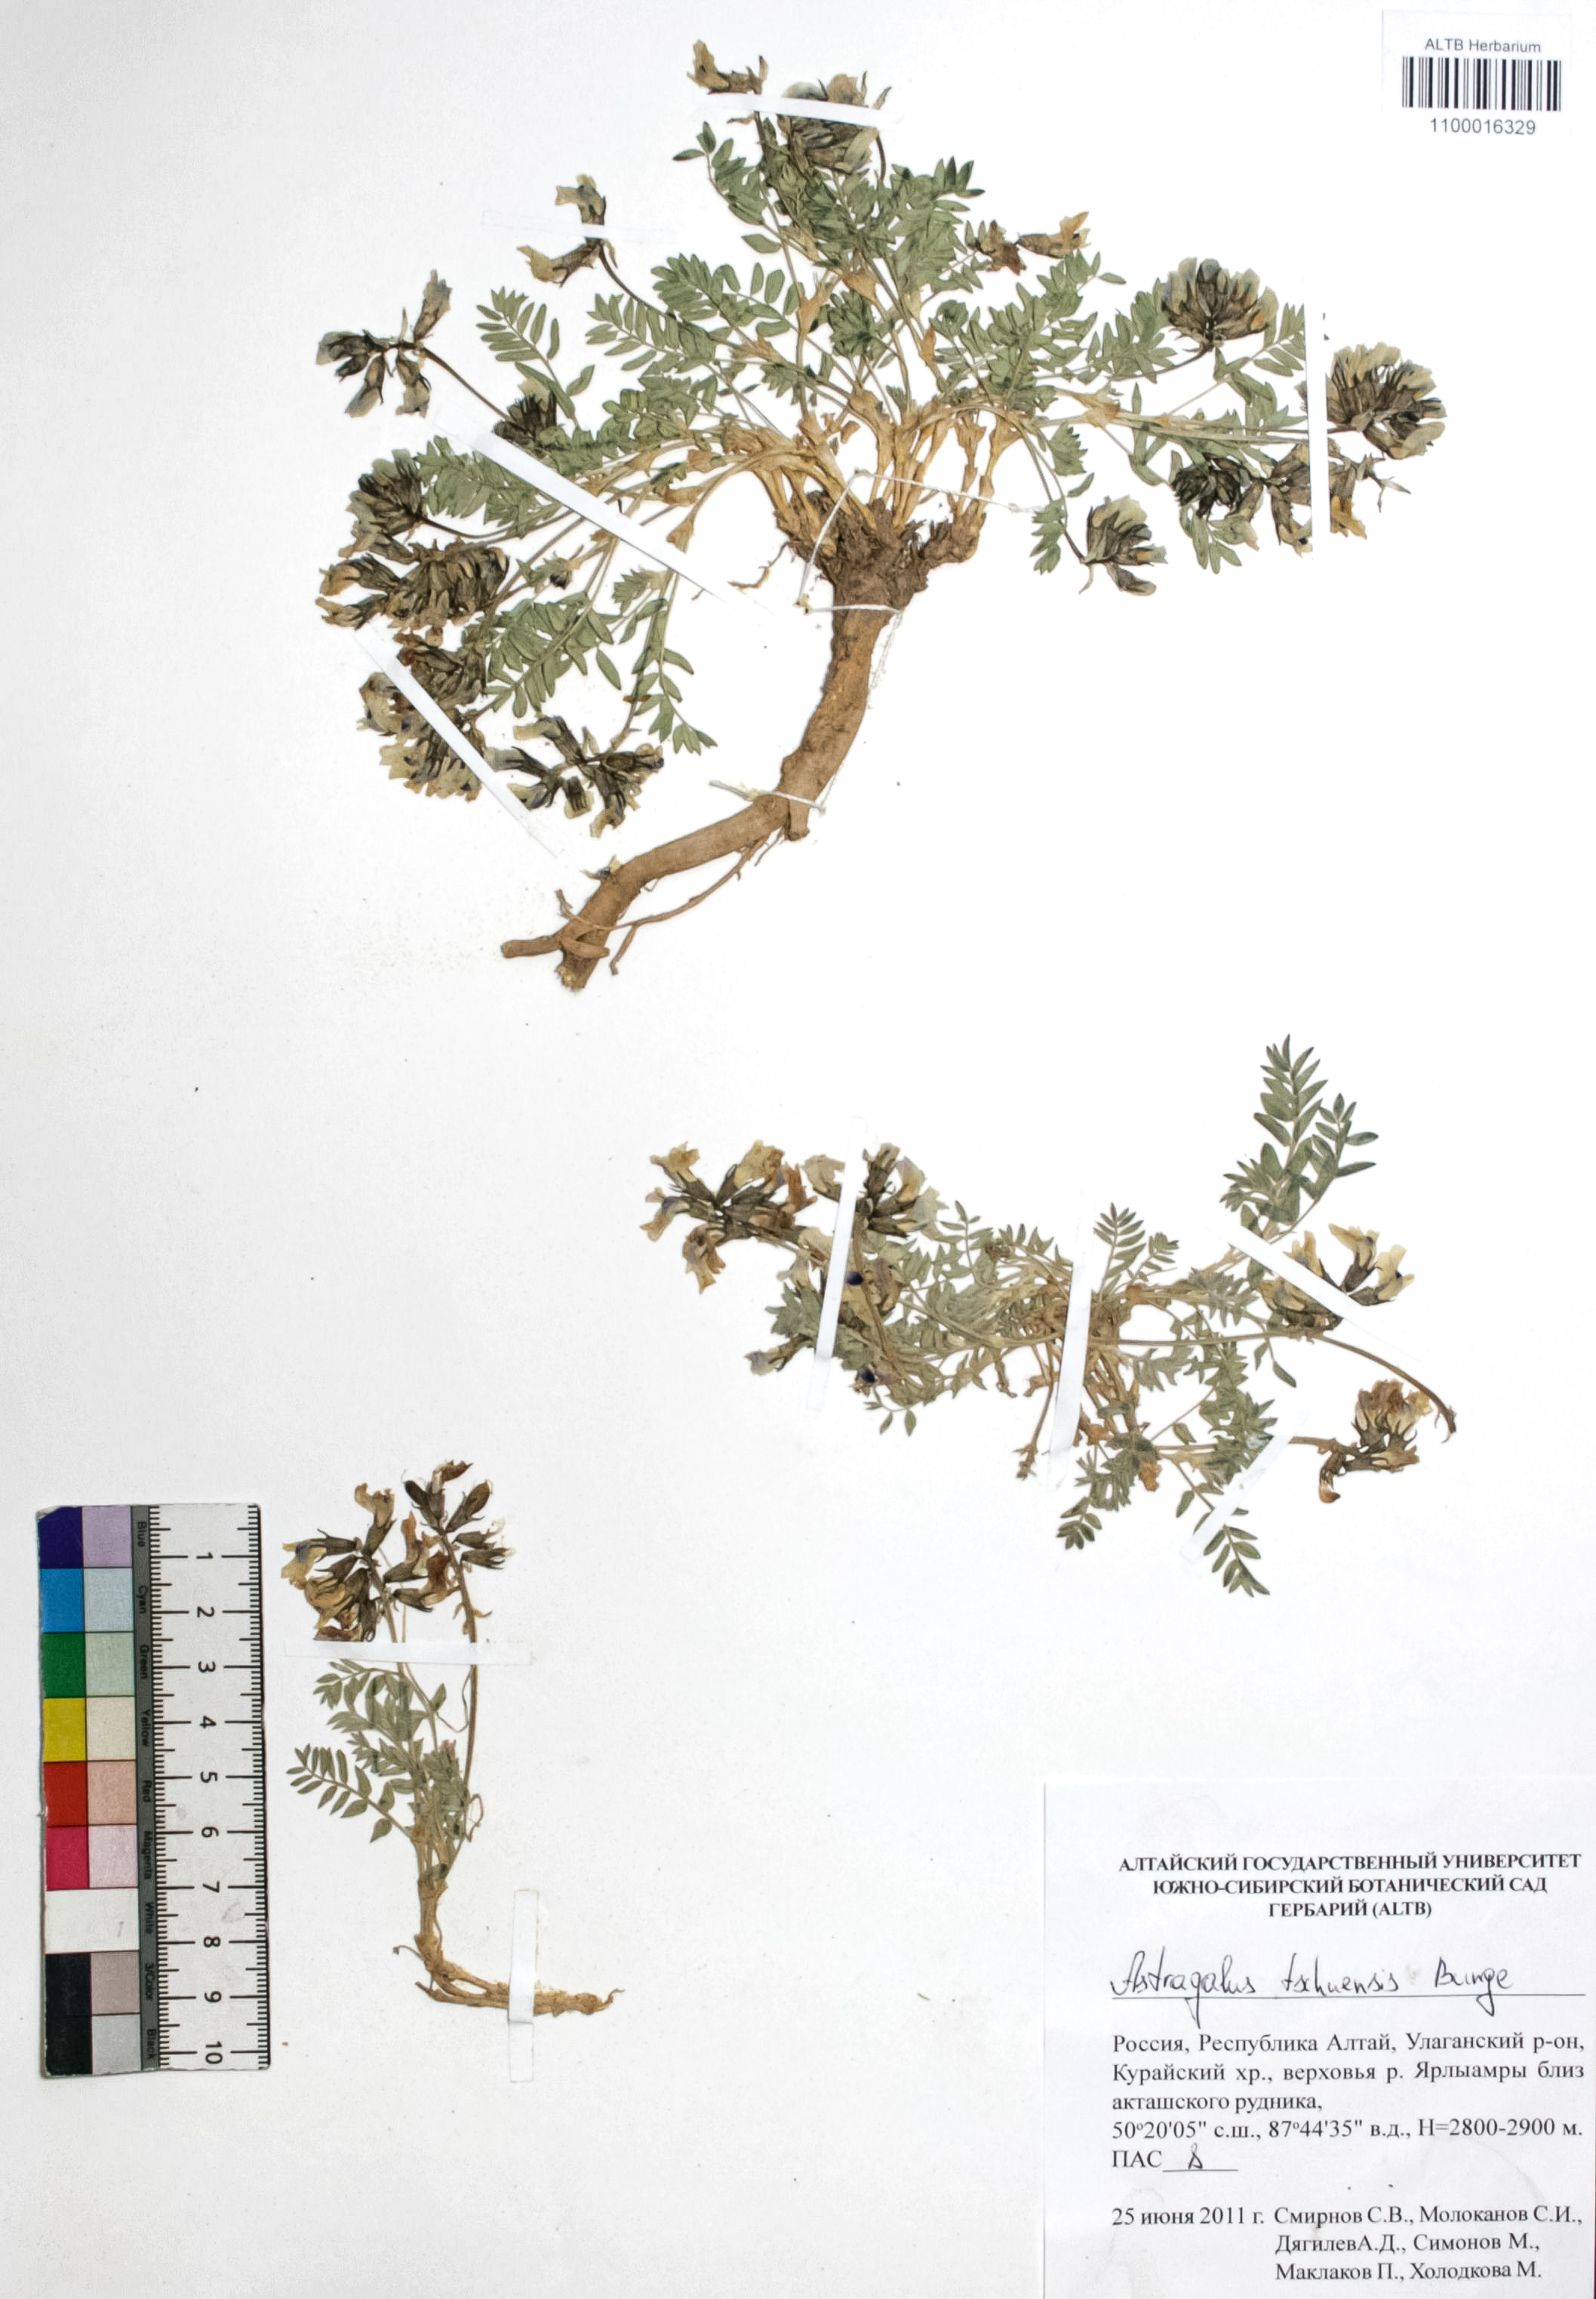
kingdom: Plantae
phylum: Tracheophyta
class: Magnoliopsida
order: Fabales
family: Fabaceae
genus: Astragalus
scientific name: Astragalus tschujensis
